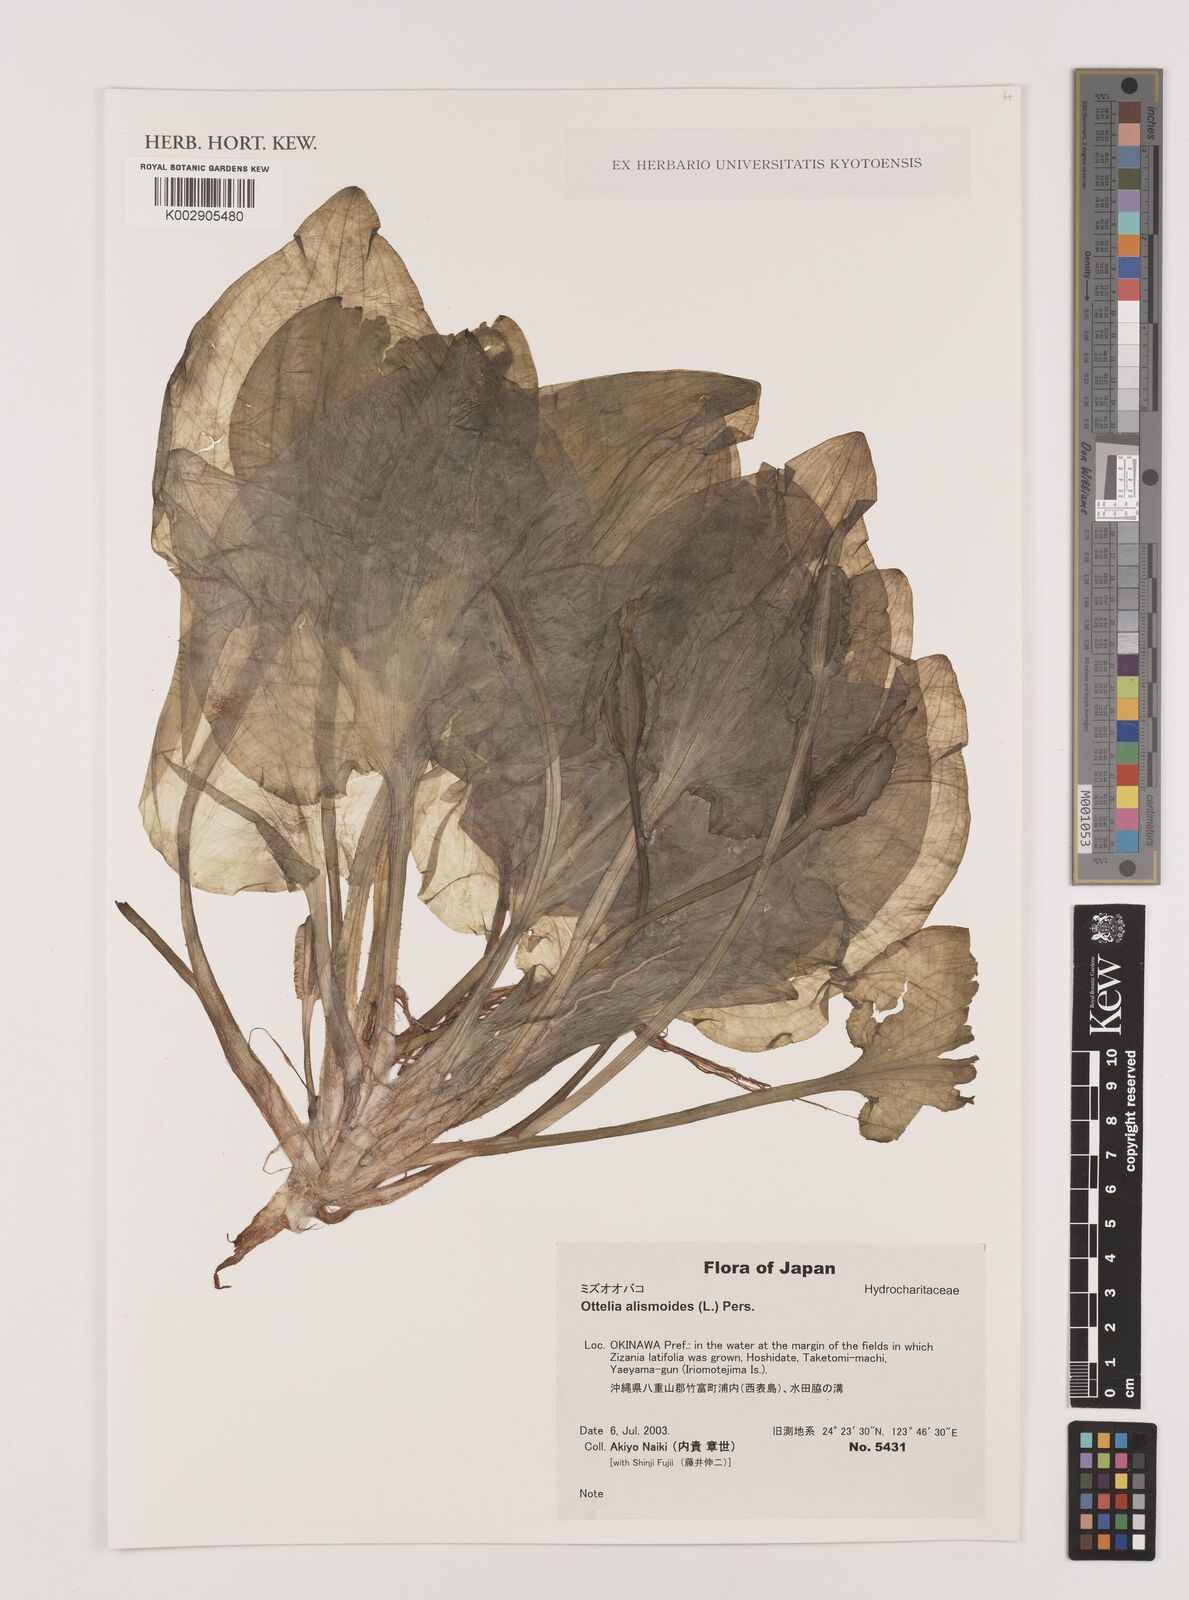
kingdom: Plantae
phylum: Tracheophyta
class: Liliopsida
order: Alismatales
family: Hydrocharitaceae
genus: Ottelia
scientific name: Ottelia alismoides
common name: Duck-lettuce
